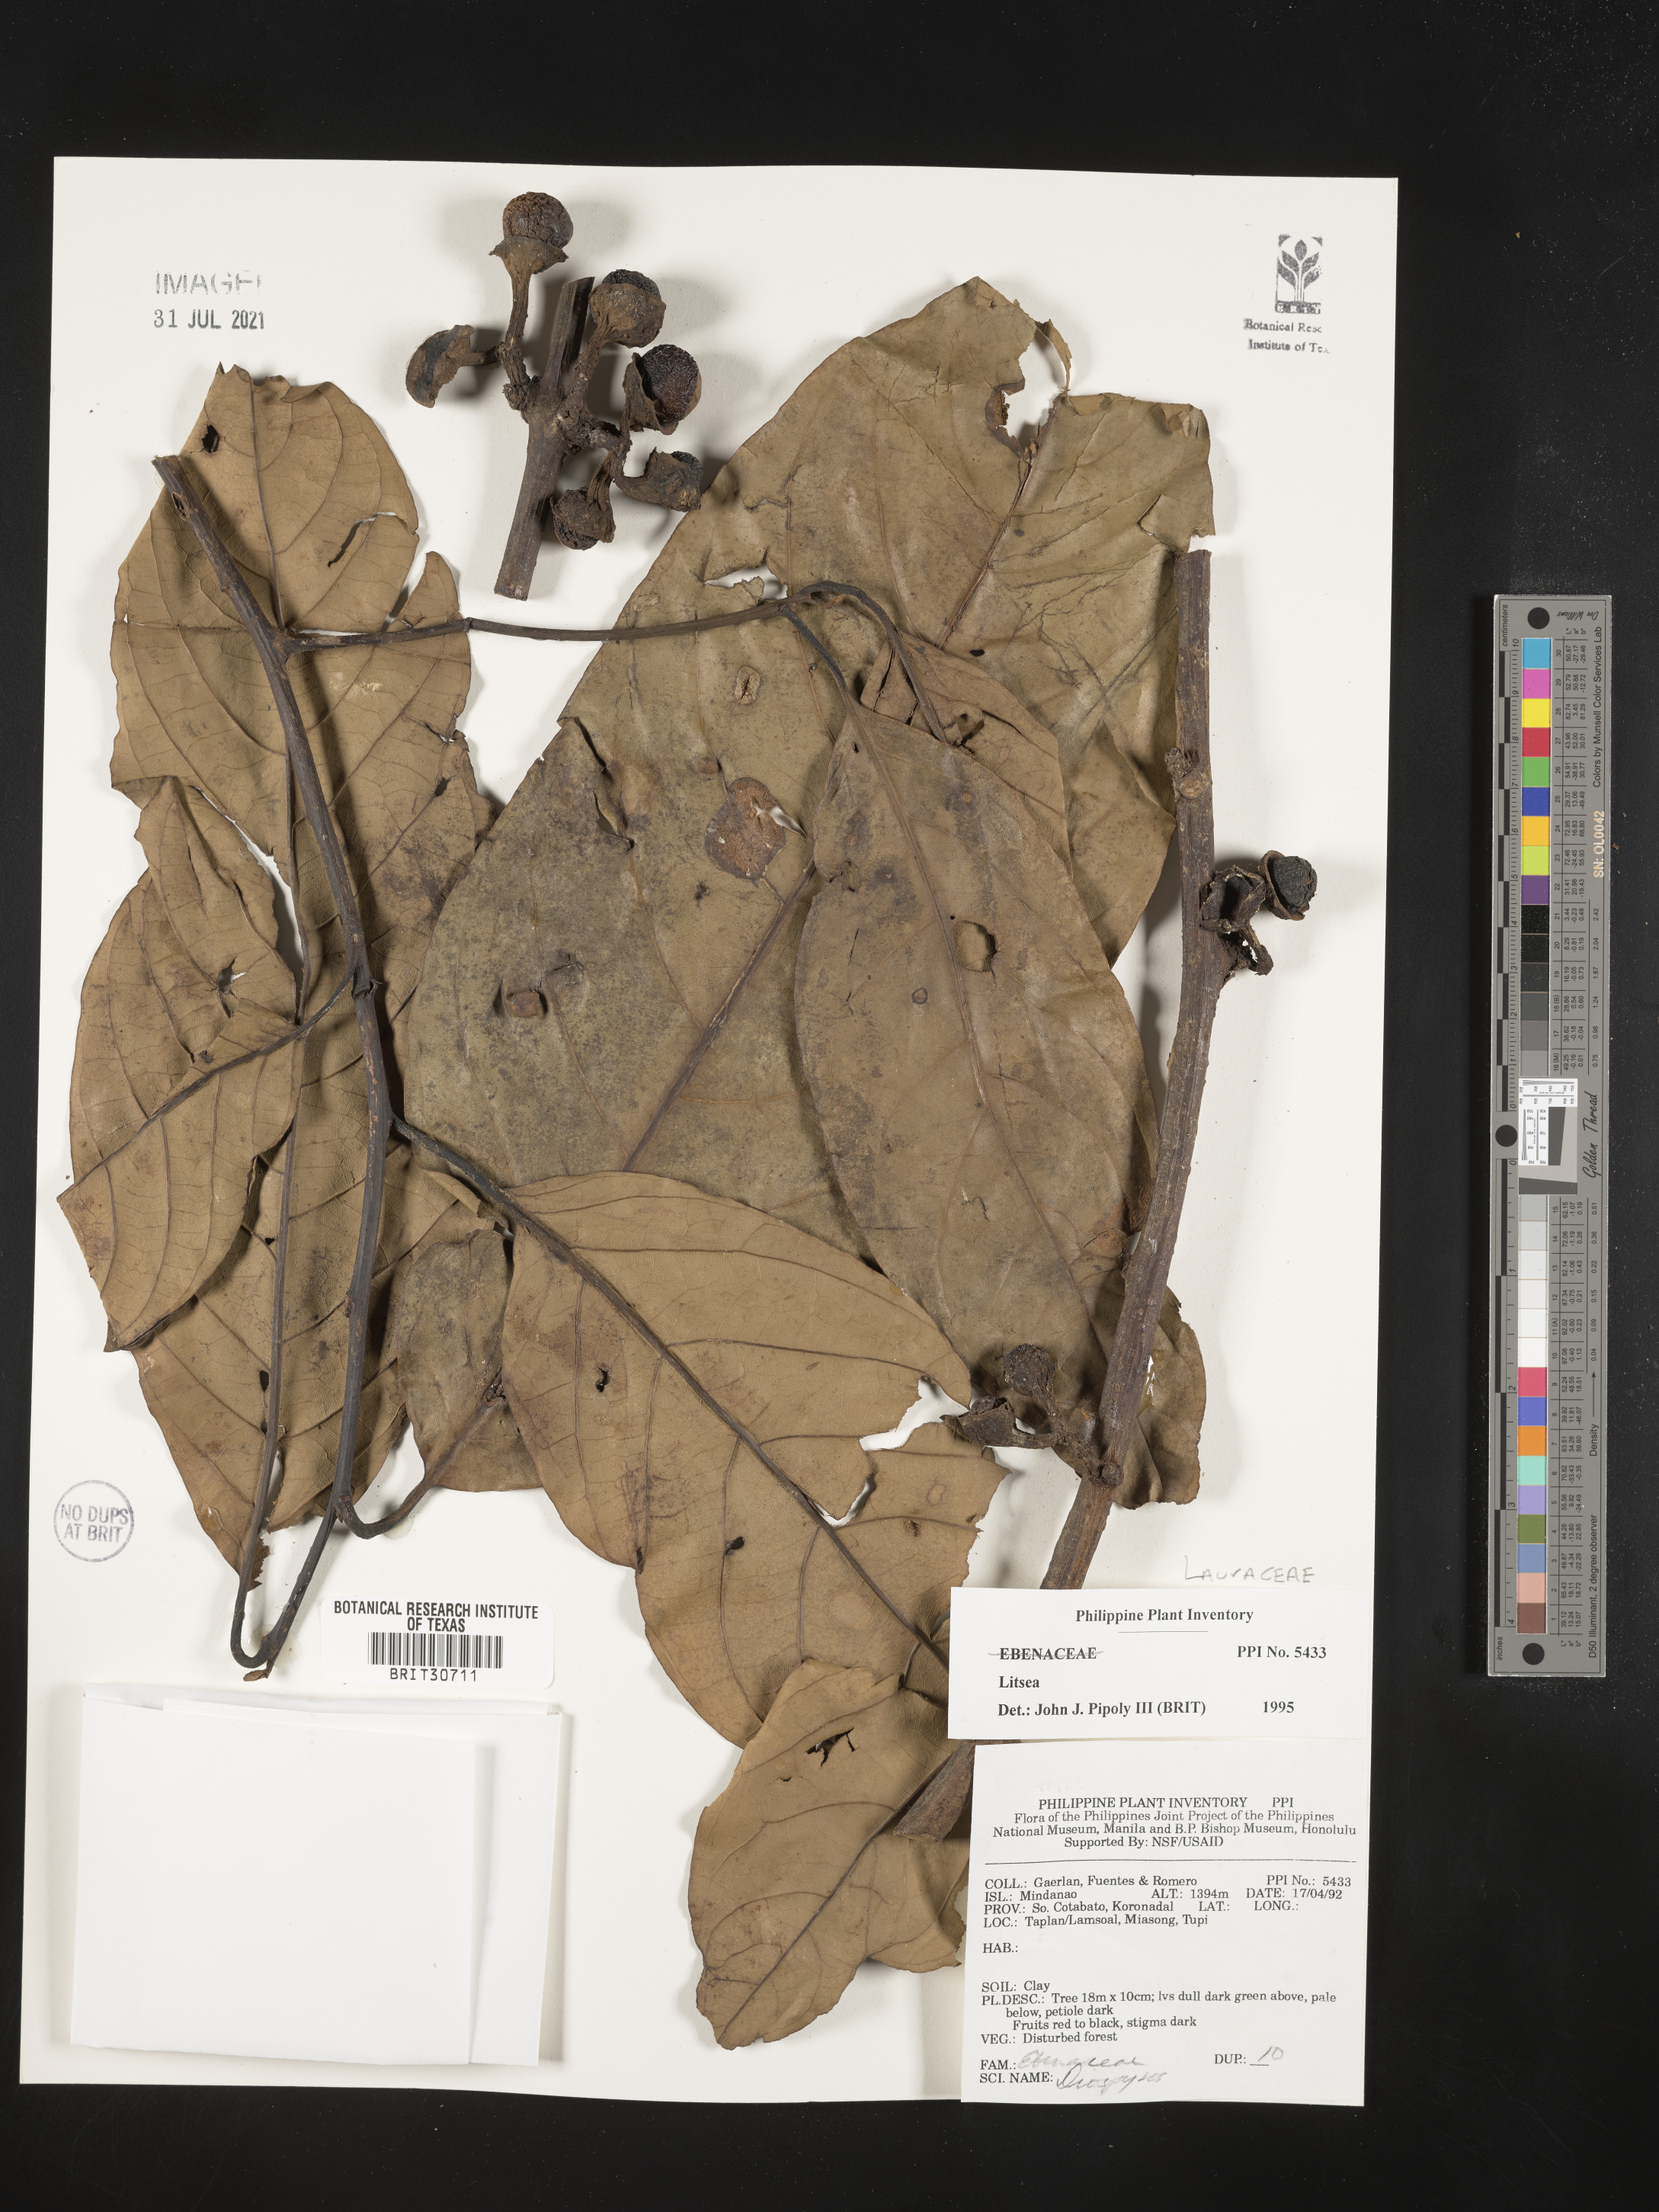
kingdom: Plantae
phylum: Tracheophyta
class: Magnoliopsida
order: Laurales
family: Lauraceae
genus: Litsea
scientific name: Litsea
